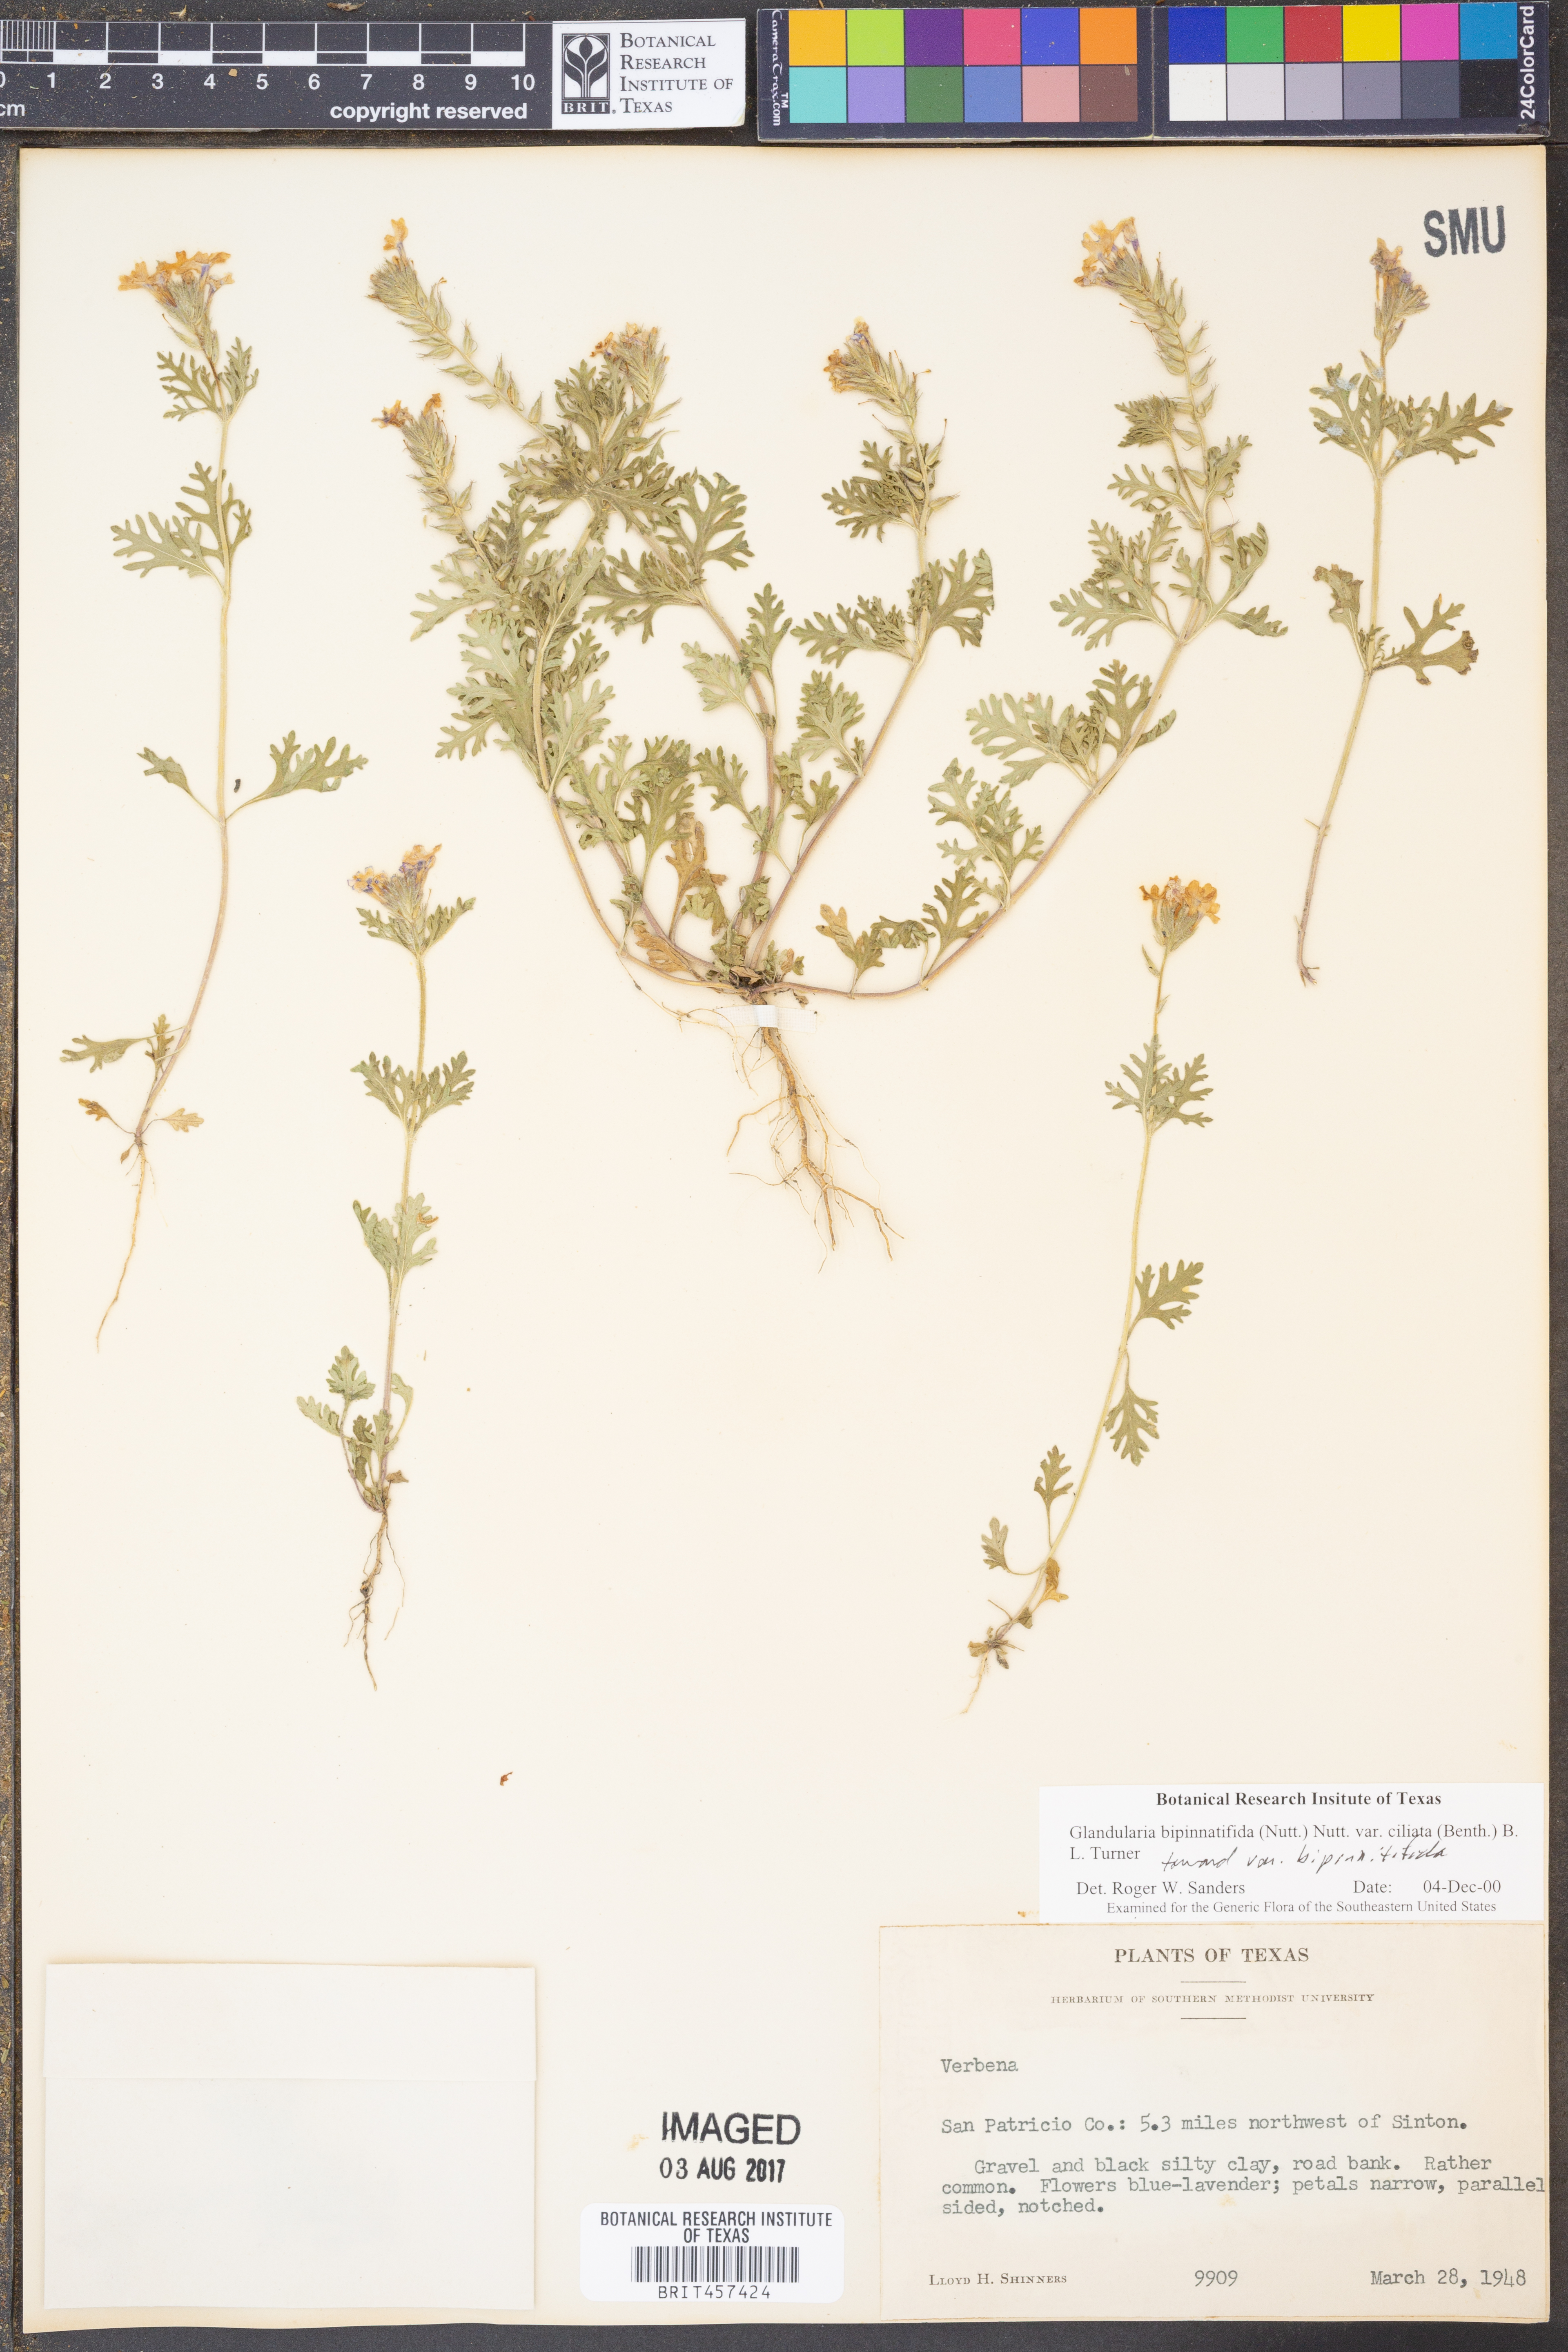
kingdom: Plantae
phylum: Tracheophyta
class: Magnoliopsida
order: Lamiales
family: Verbenaceae
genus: Verbena
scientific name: Verbena bipinnatifida
